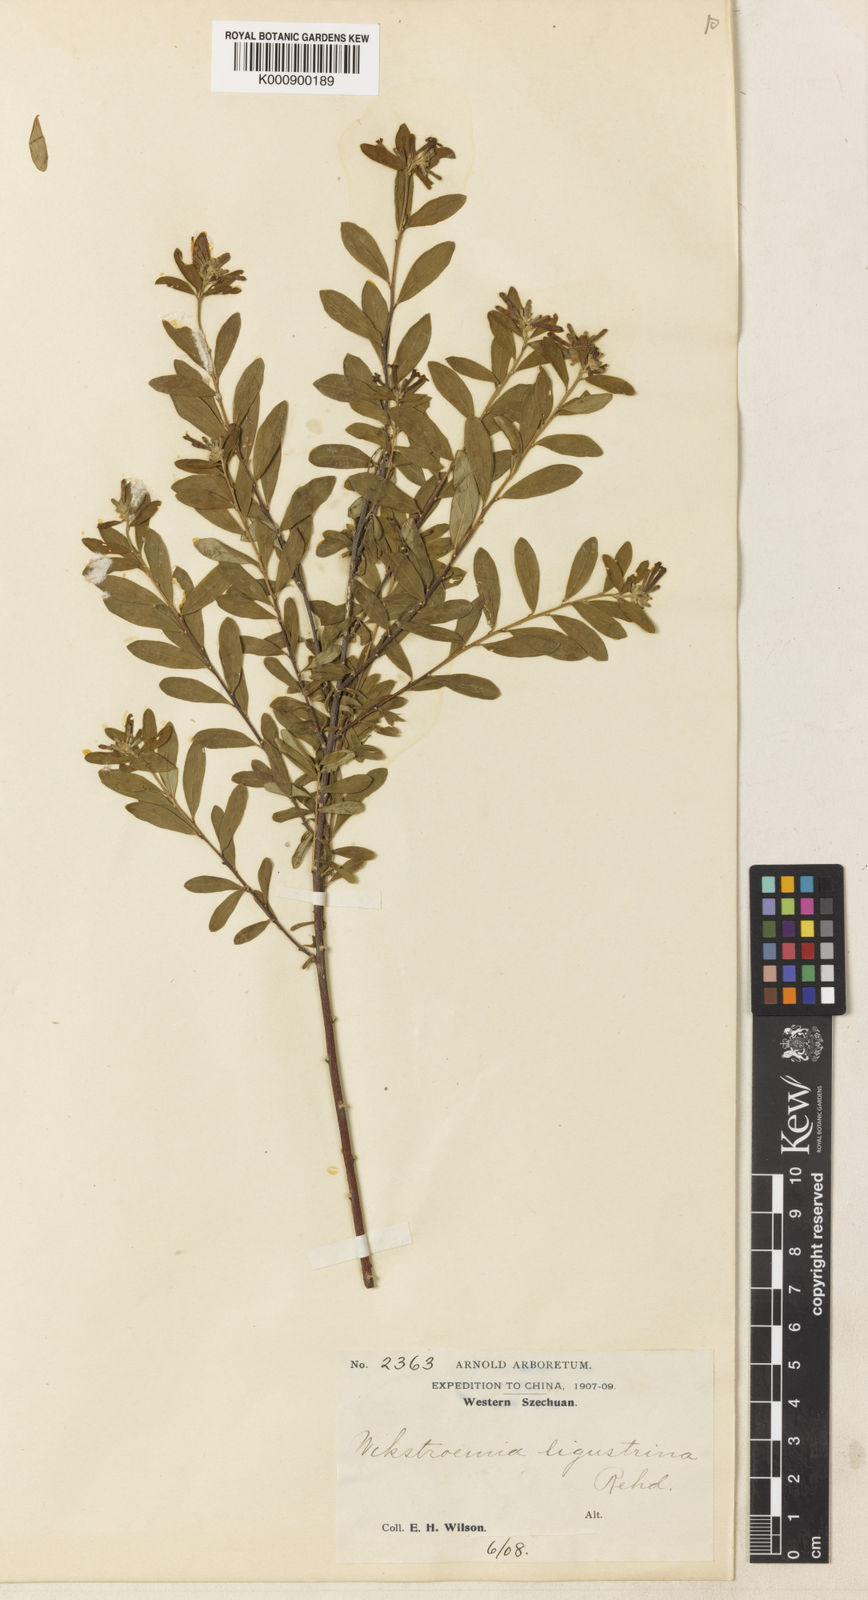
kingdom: Plantae
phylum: Tracheophyta
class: Magnoliopsida
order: Malvales
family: Thymelaeaceae
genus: Wikstroemia
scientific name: Wikstroemia ligustrina
